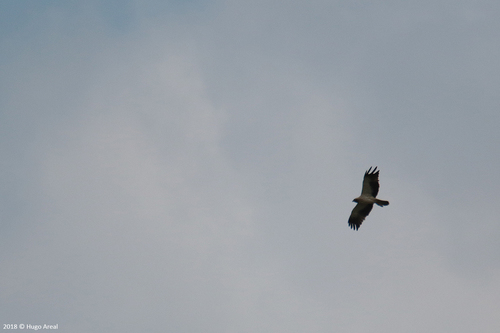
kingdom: Animalia
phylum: Chordata
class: Aves
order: Accipitriformes
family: Accipitridae
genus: Hieraaetus
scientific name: Hieraaetus pennatus
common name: Booted eagle
